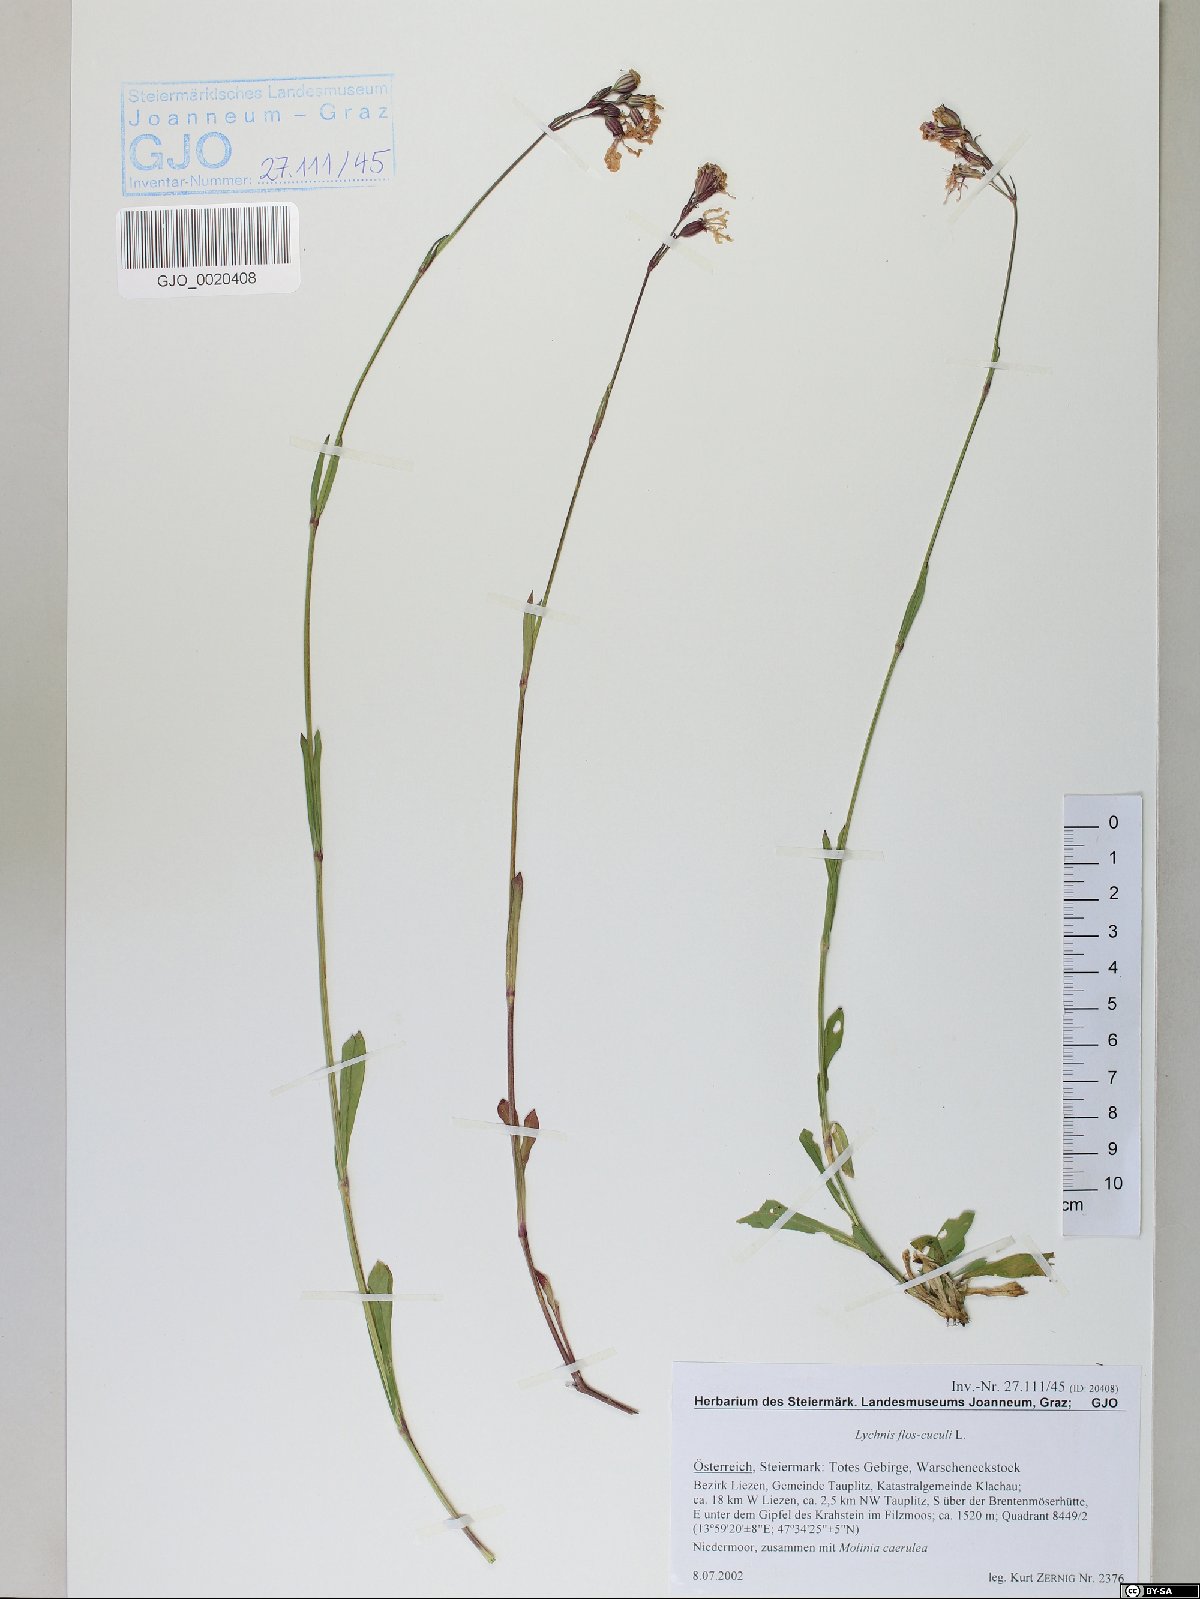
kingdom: Plantae
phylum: Tracheophyta
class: Magnoliopsida
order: Caryophyllales
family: Caryophyllaceae
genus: Silene
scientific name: Silene flos-cuculi
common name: Ragged-robin
